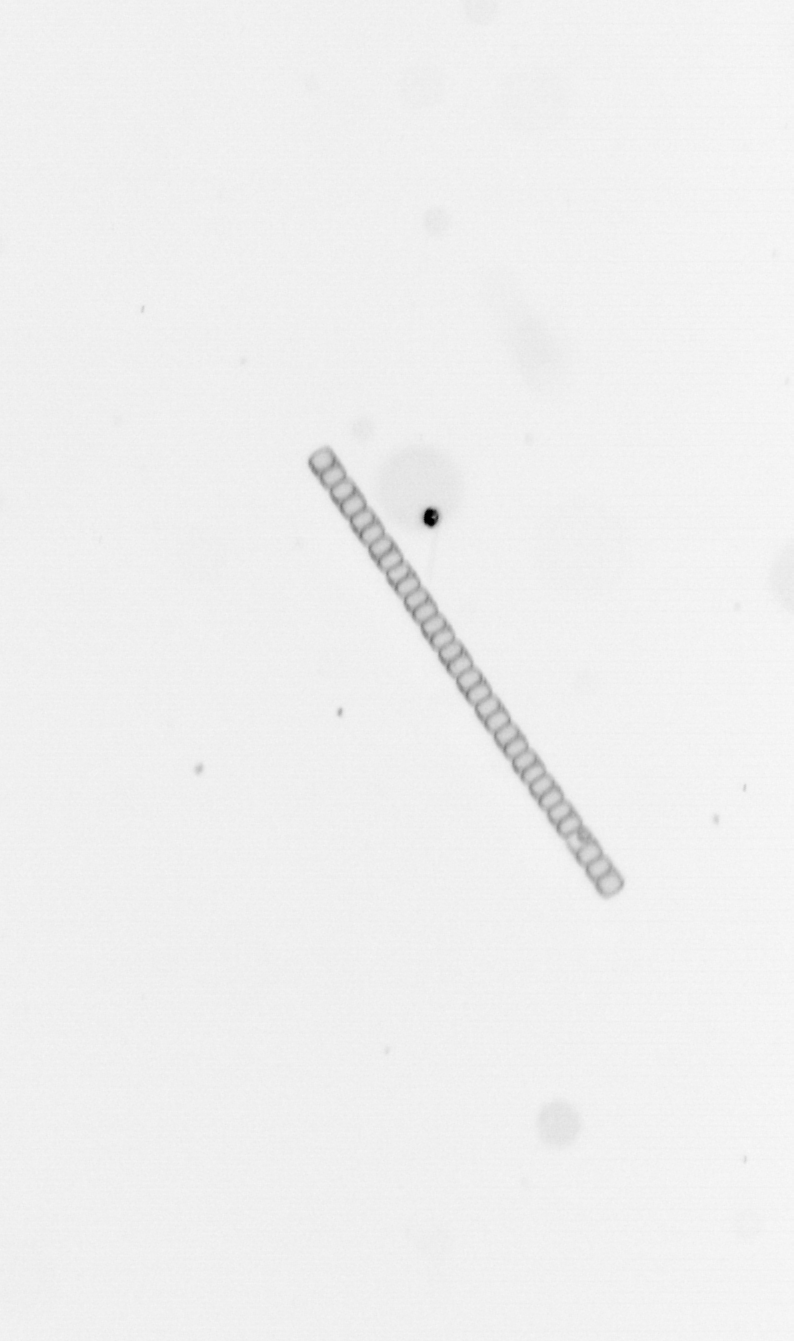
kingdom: Chromista
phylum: Ochrophyta
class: Bacillariophyceae
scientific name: Bacillariophyceae
